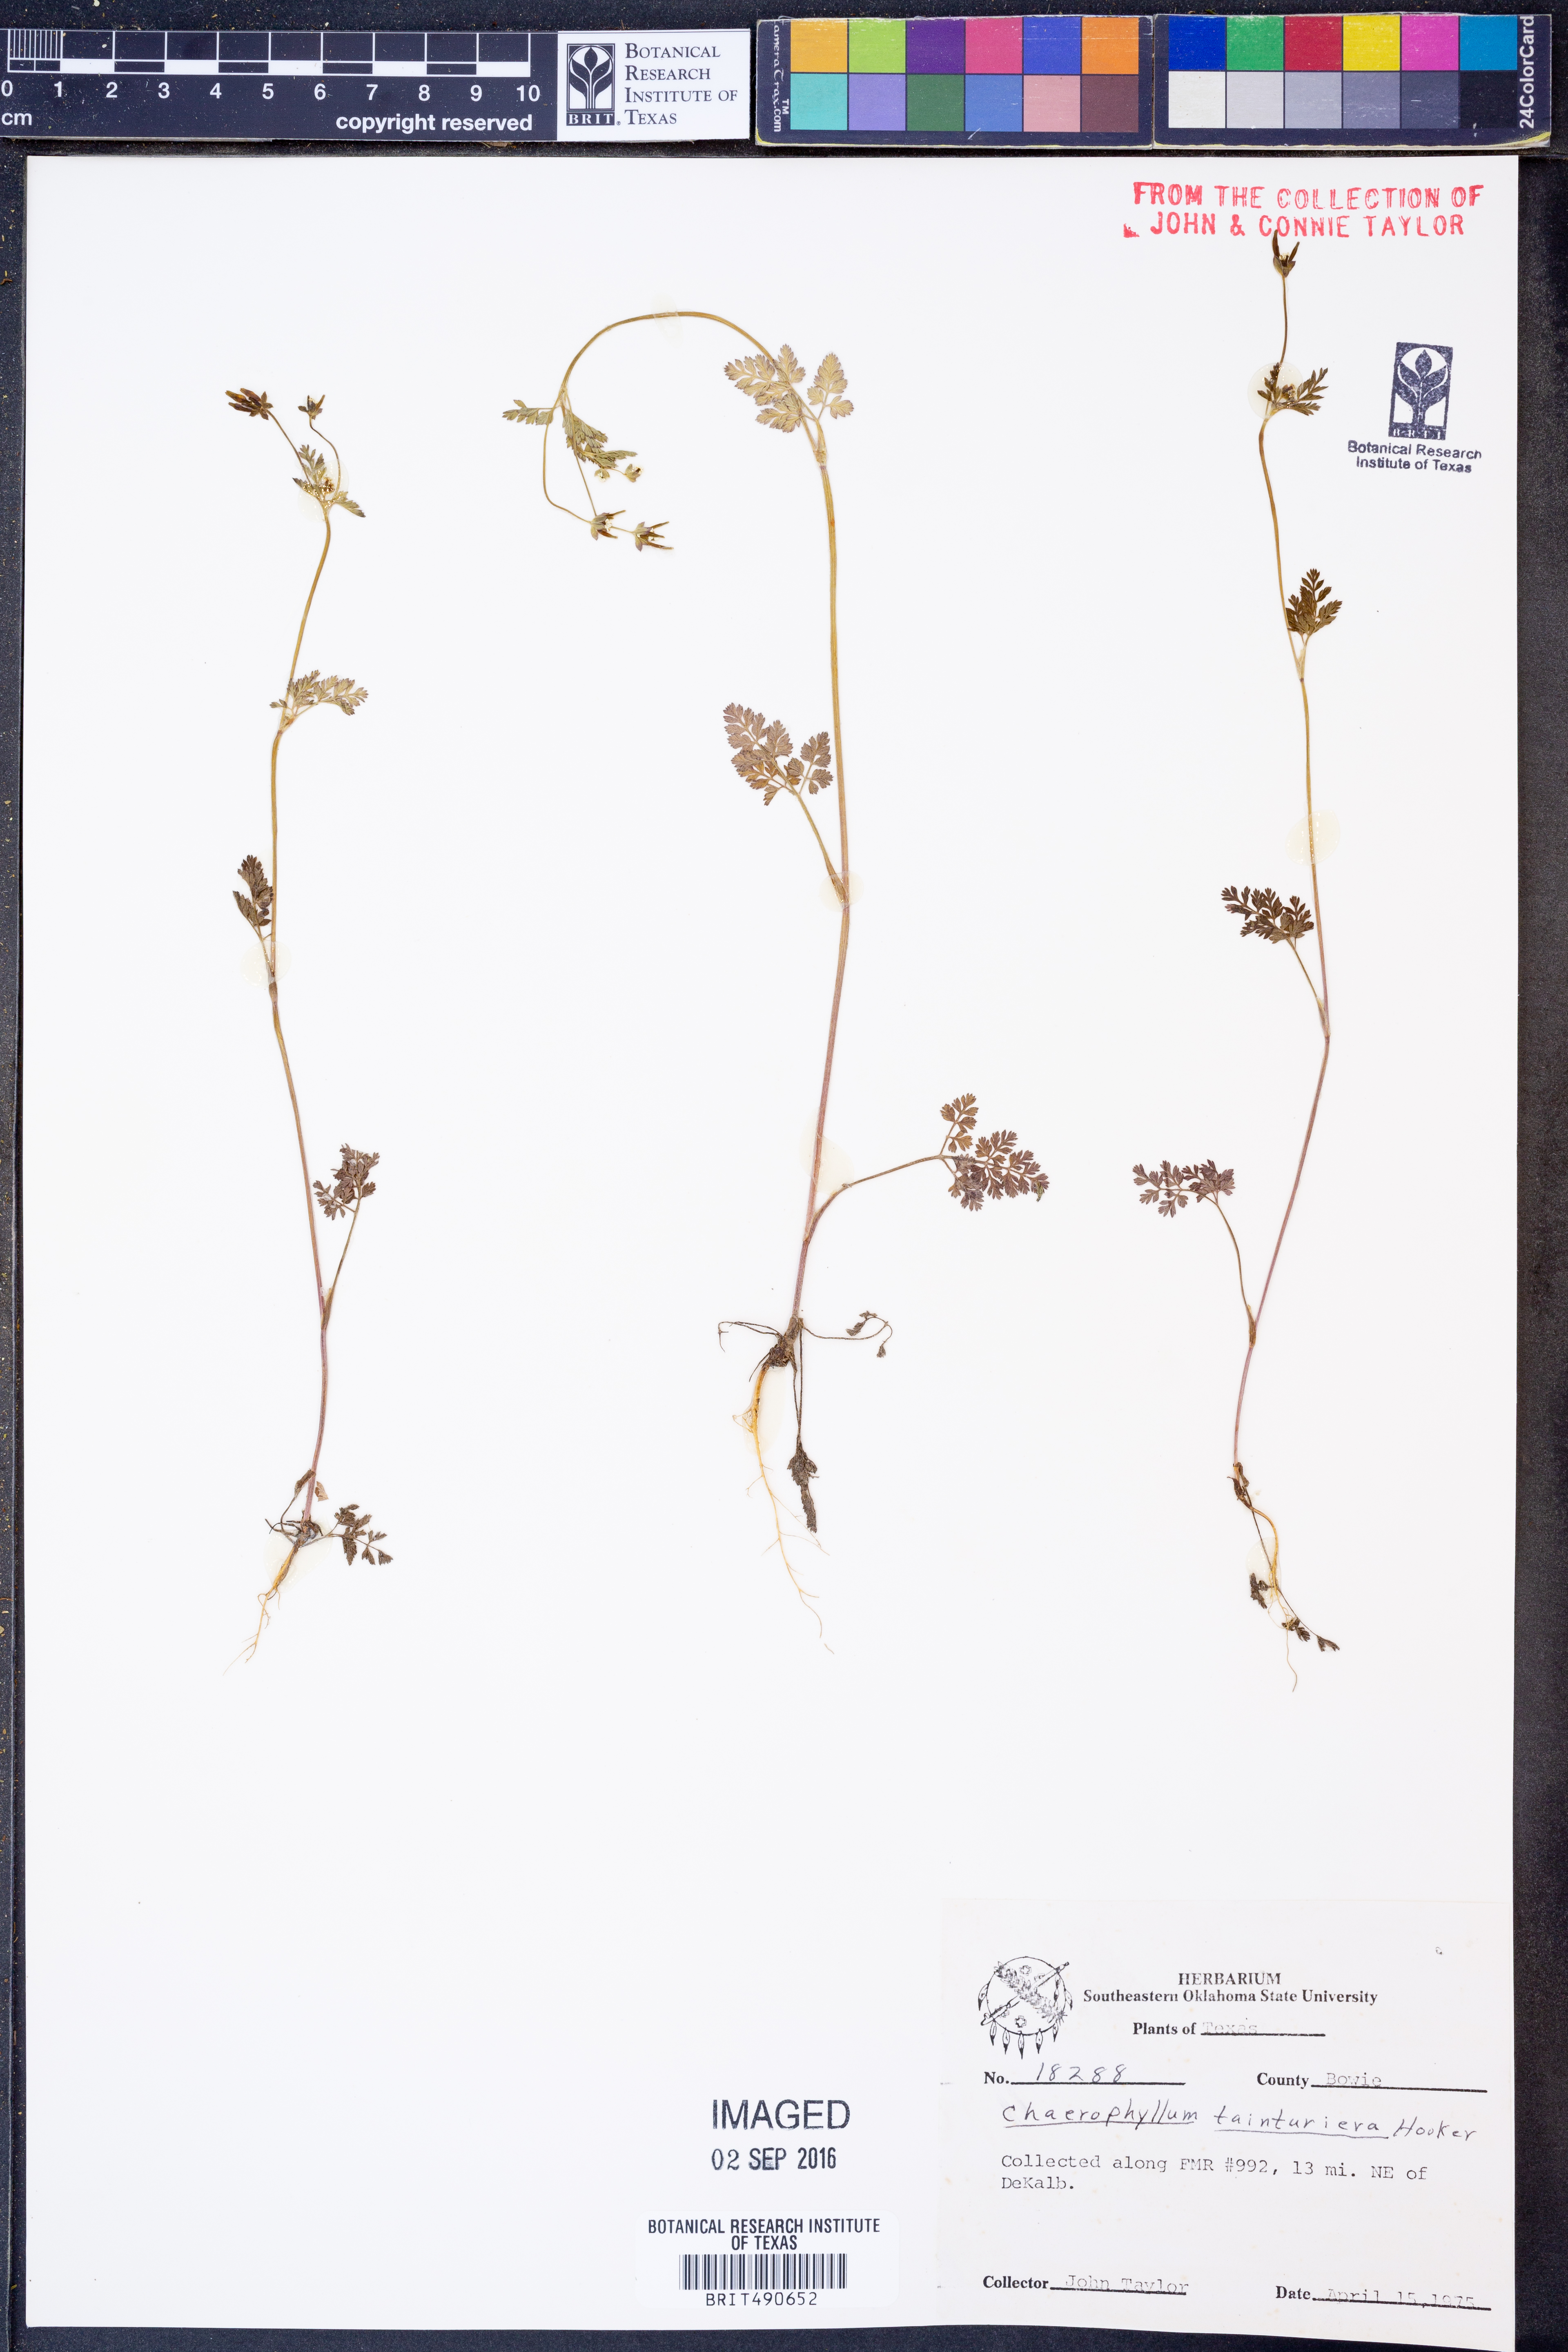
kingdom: Plantae
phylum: Tracheophyta
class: Magnoliopsida
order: Apiales
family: Apiaceae
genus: Chaerophyllum
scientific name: Chaerophyllum tainturieri
